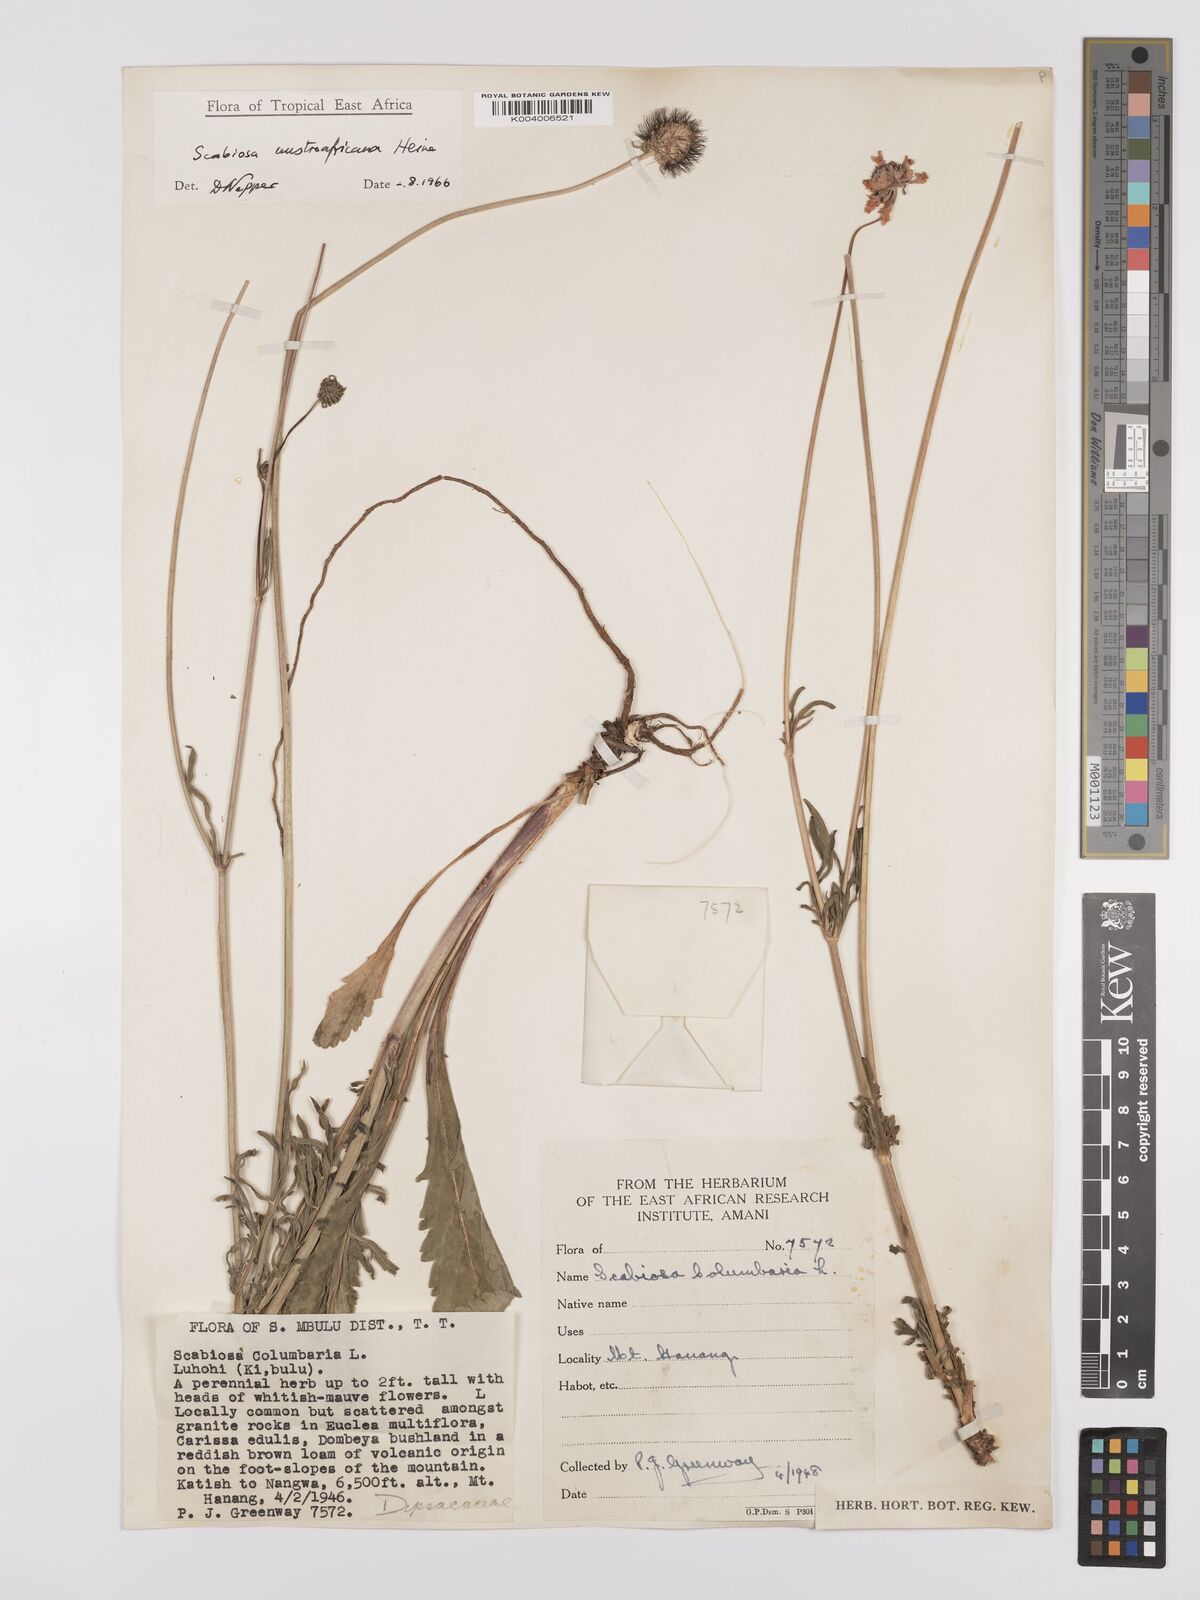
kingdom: Plantae
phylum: Tracheophyta
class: Magnoliopsida
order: Dipsacales
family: Caprifoliaceae
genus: Scabiosa
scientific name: Scabiosa austroafricana
